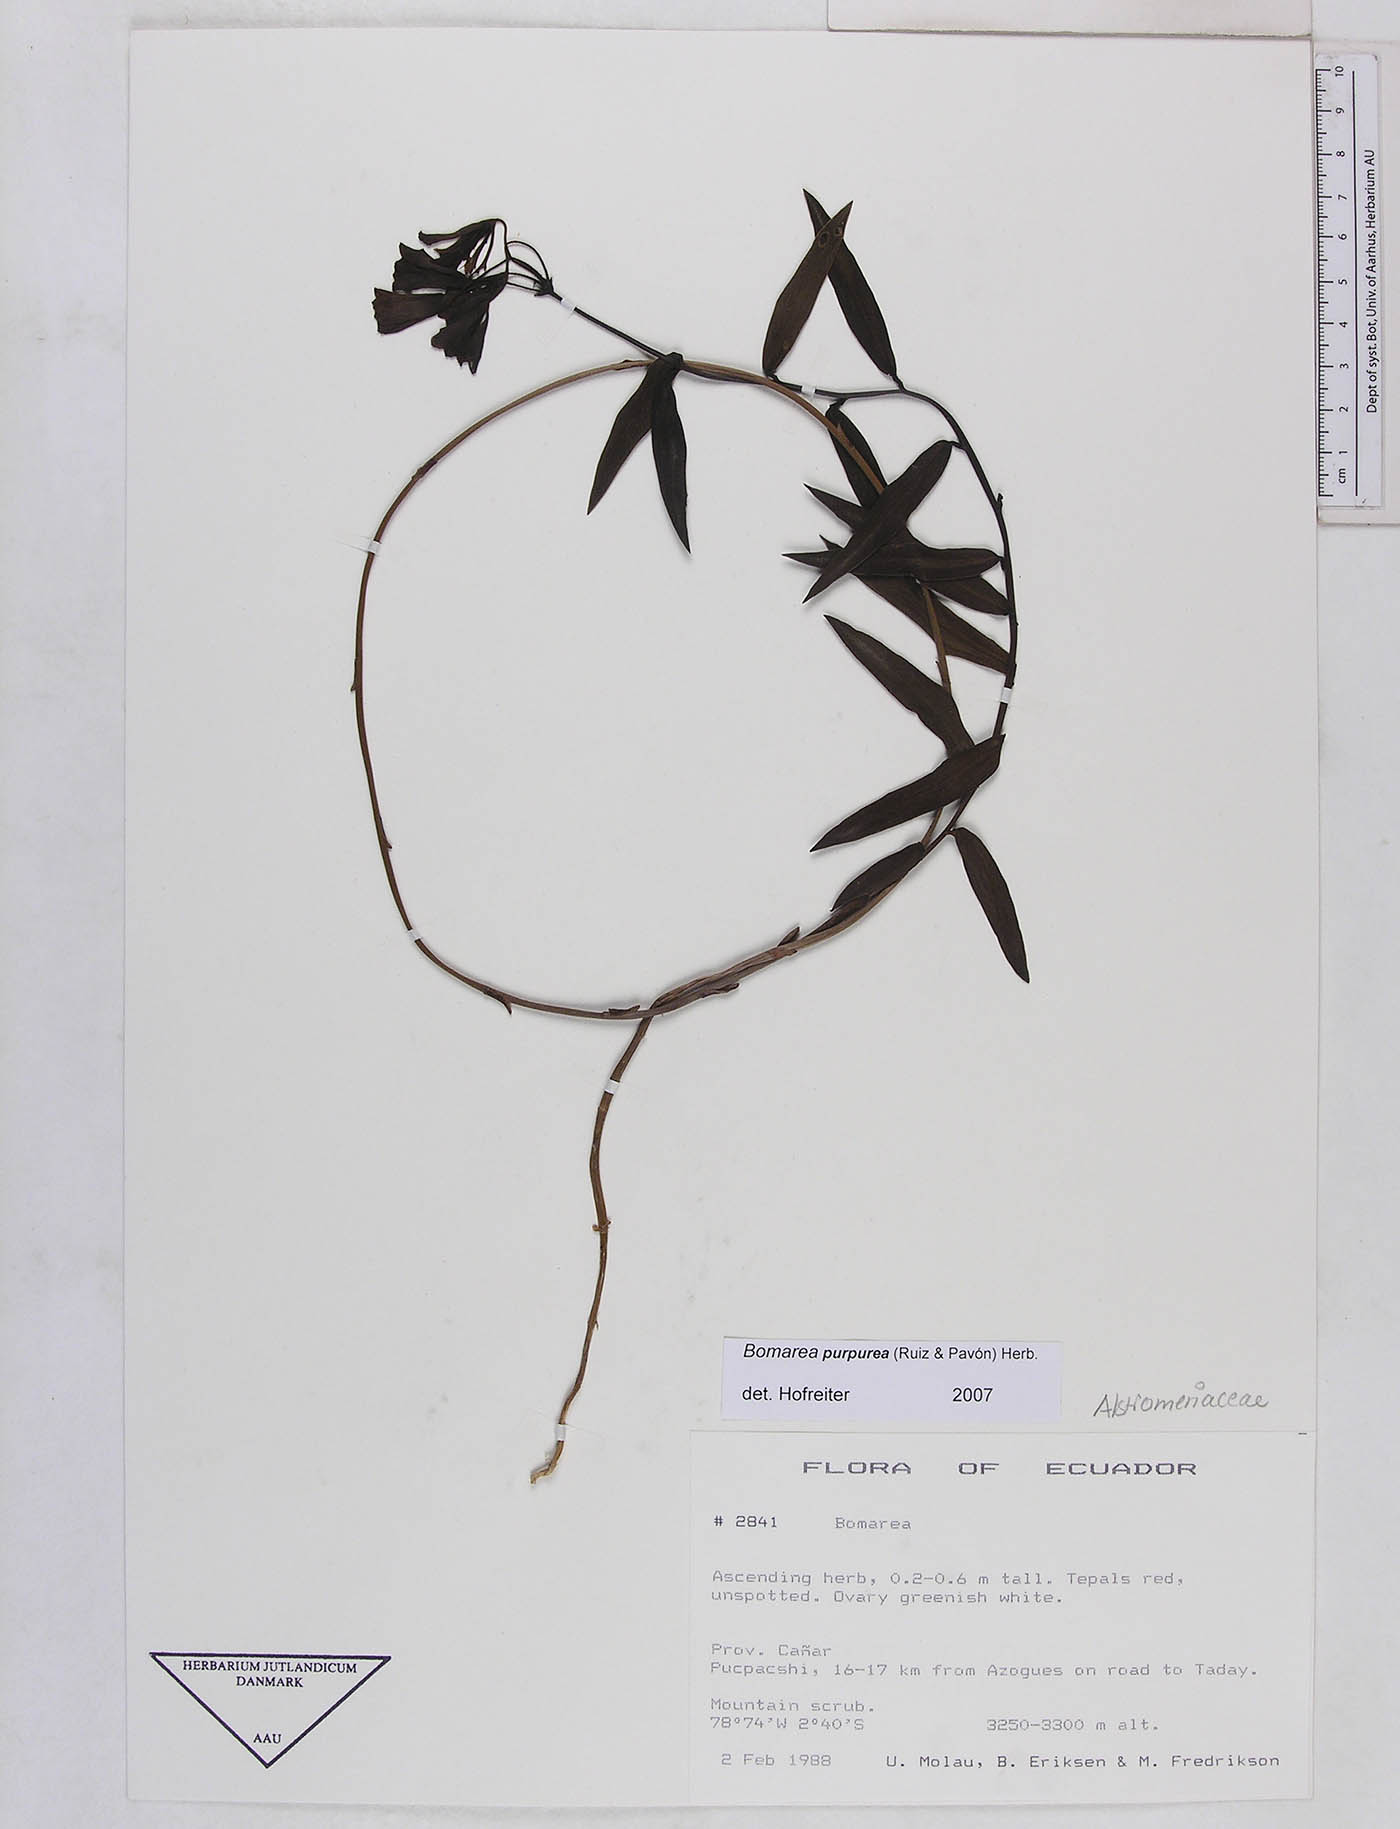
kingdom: Plantae
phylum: Tracheophyta
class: Liliopsida
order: Liliales
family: Alstroemeriaceae
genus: Bomarea
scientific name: Bomarea purpurea
